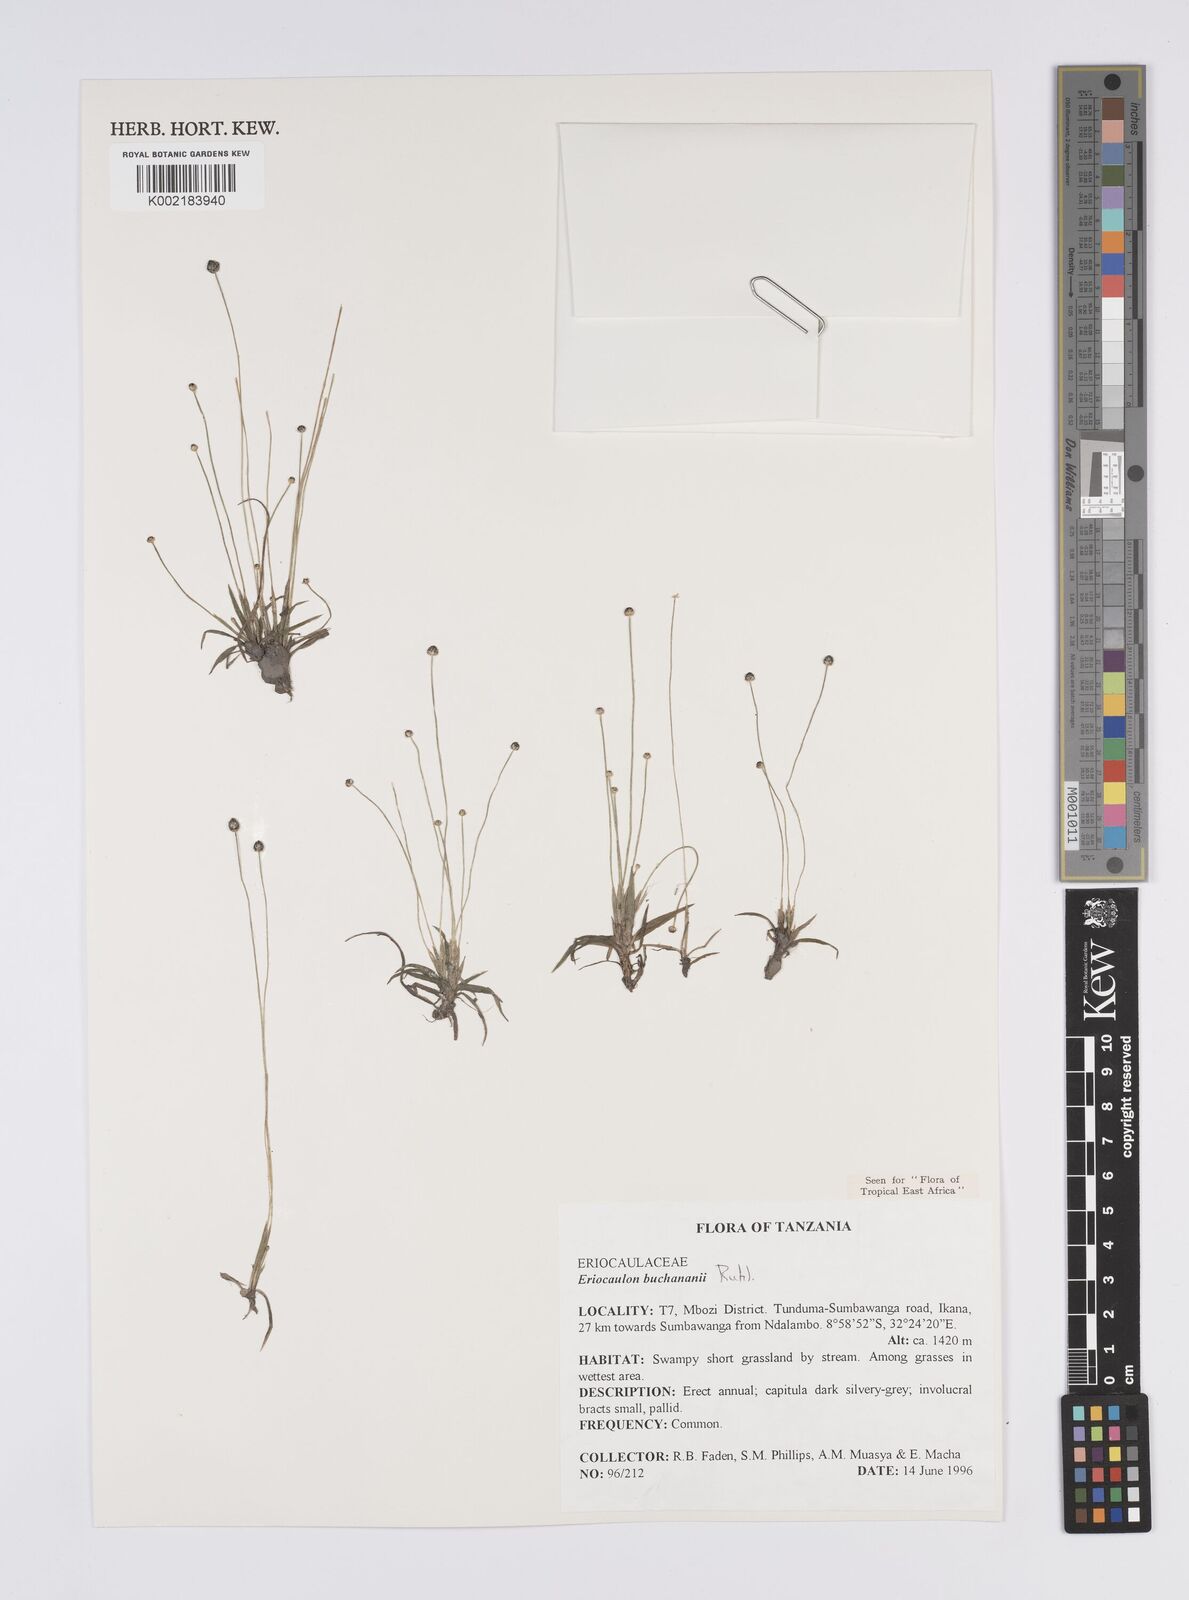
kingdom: Plantae
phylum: Tracheophyta
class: Liliopsida
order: Poales
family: Eriocaulaceae
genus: Eriocaulon
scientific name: Eriocaulon buchananii
